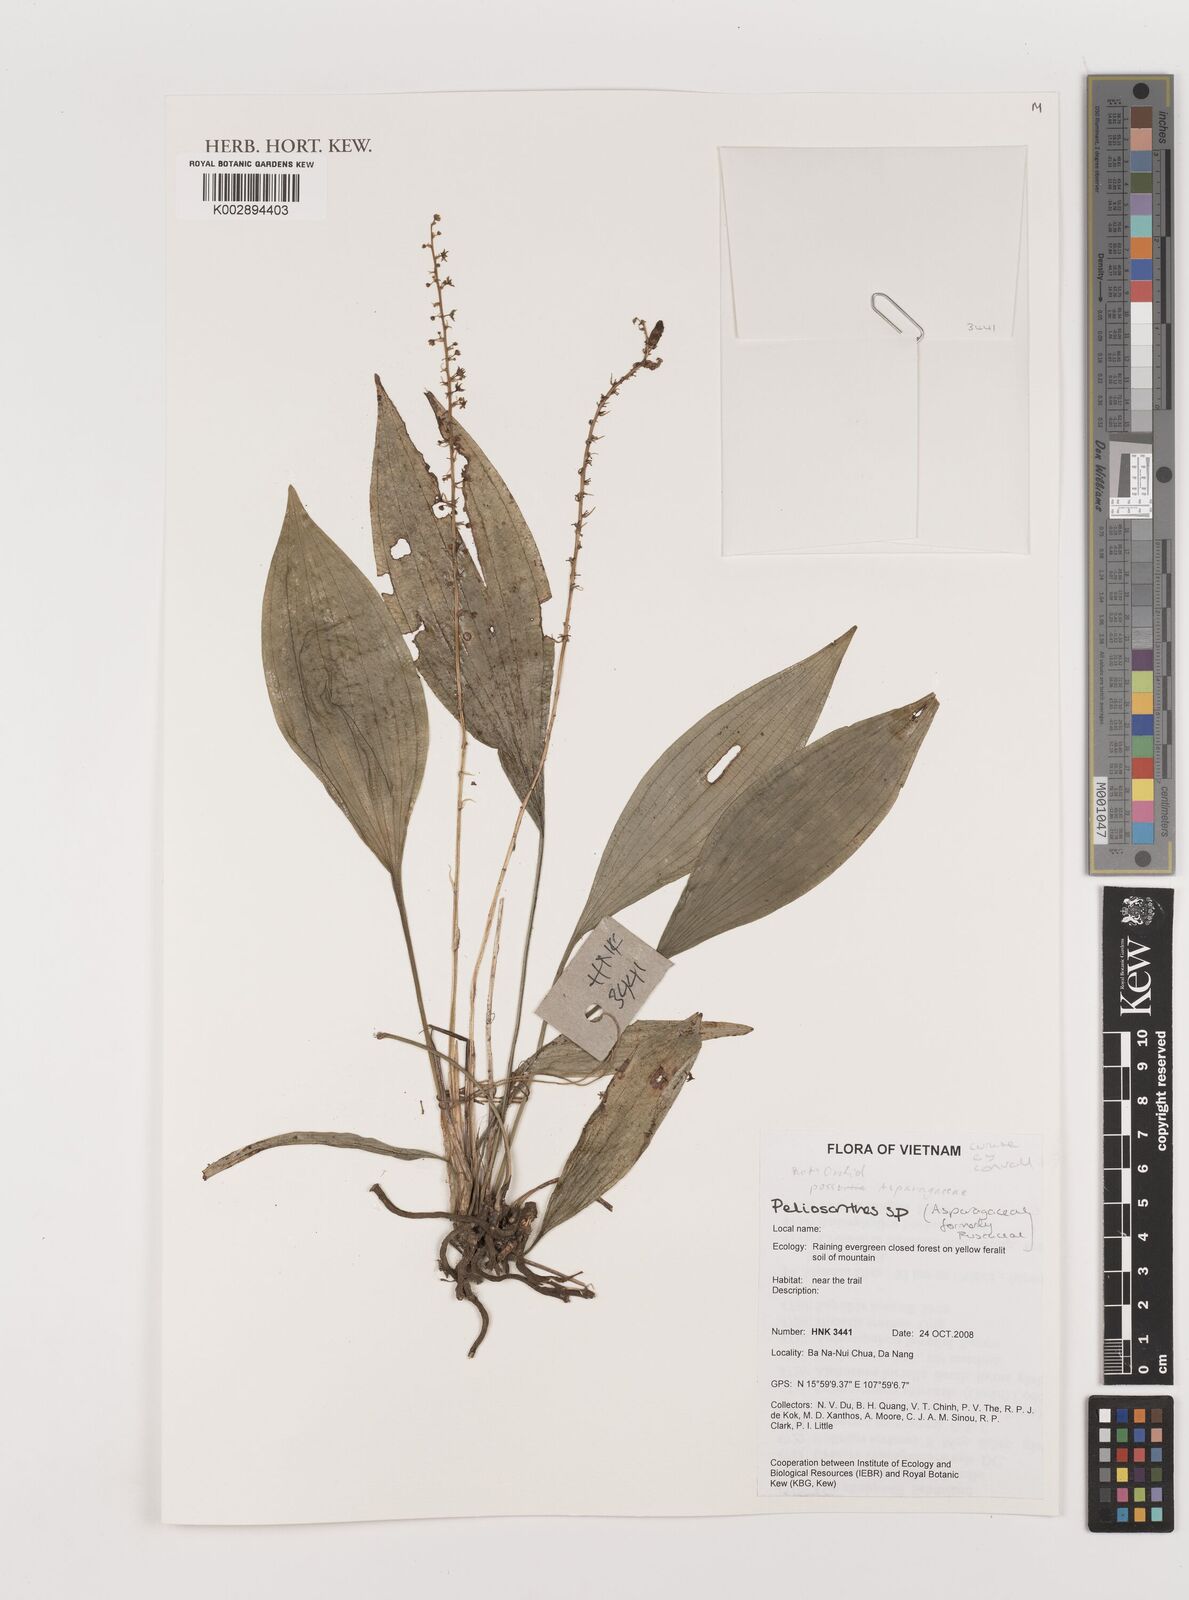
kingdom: Plantae
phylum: Tracheophyta
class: Liliopsida
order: Asparagales
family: Asparagaceae
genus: Peliosanthes
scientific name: Peliosanthes
